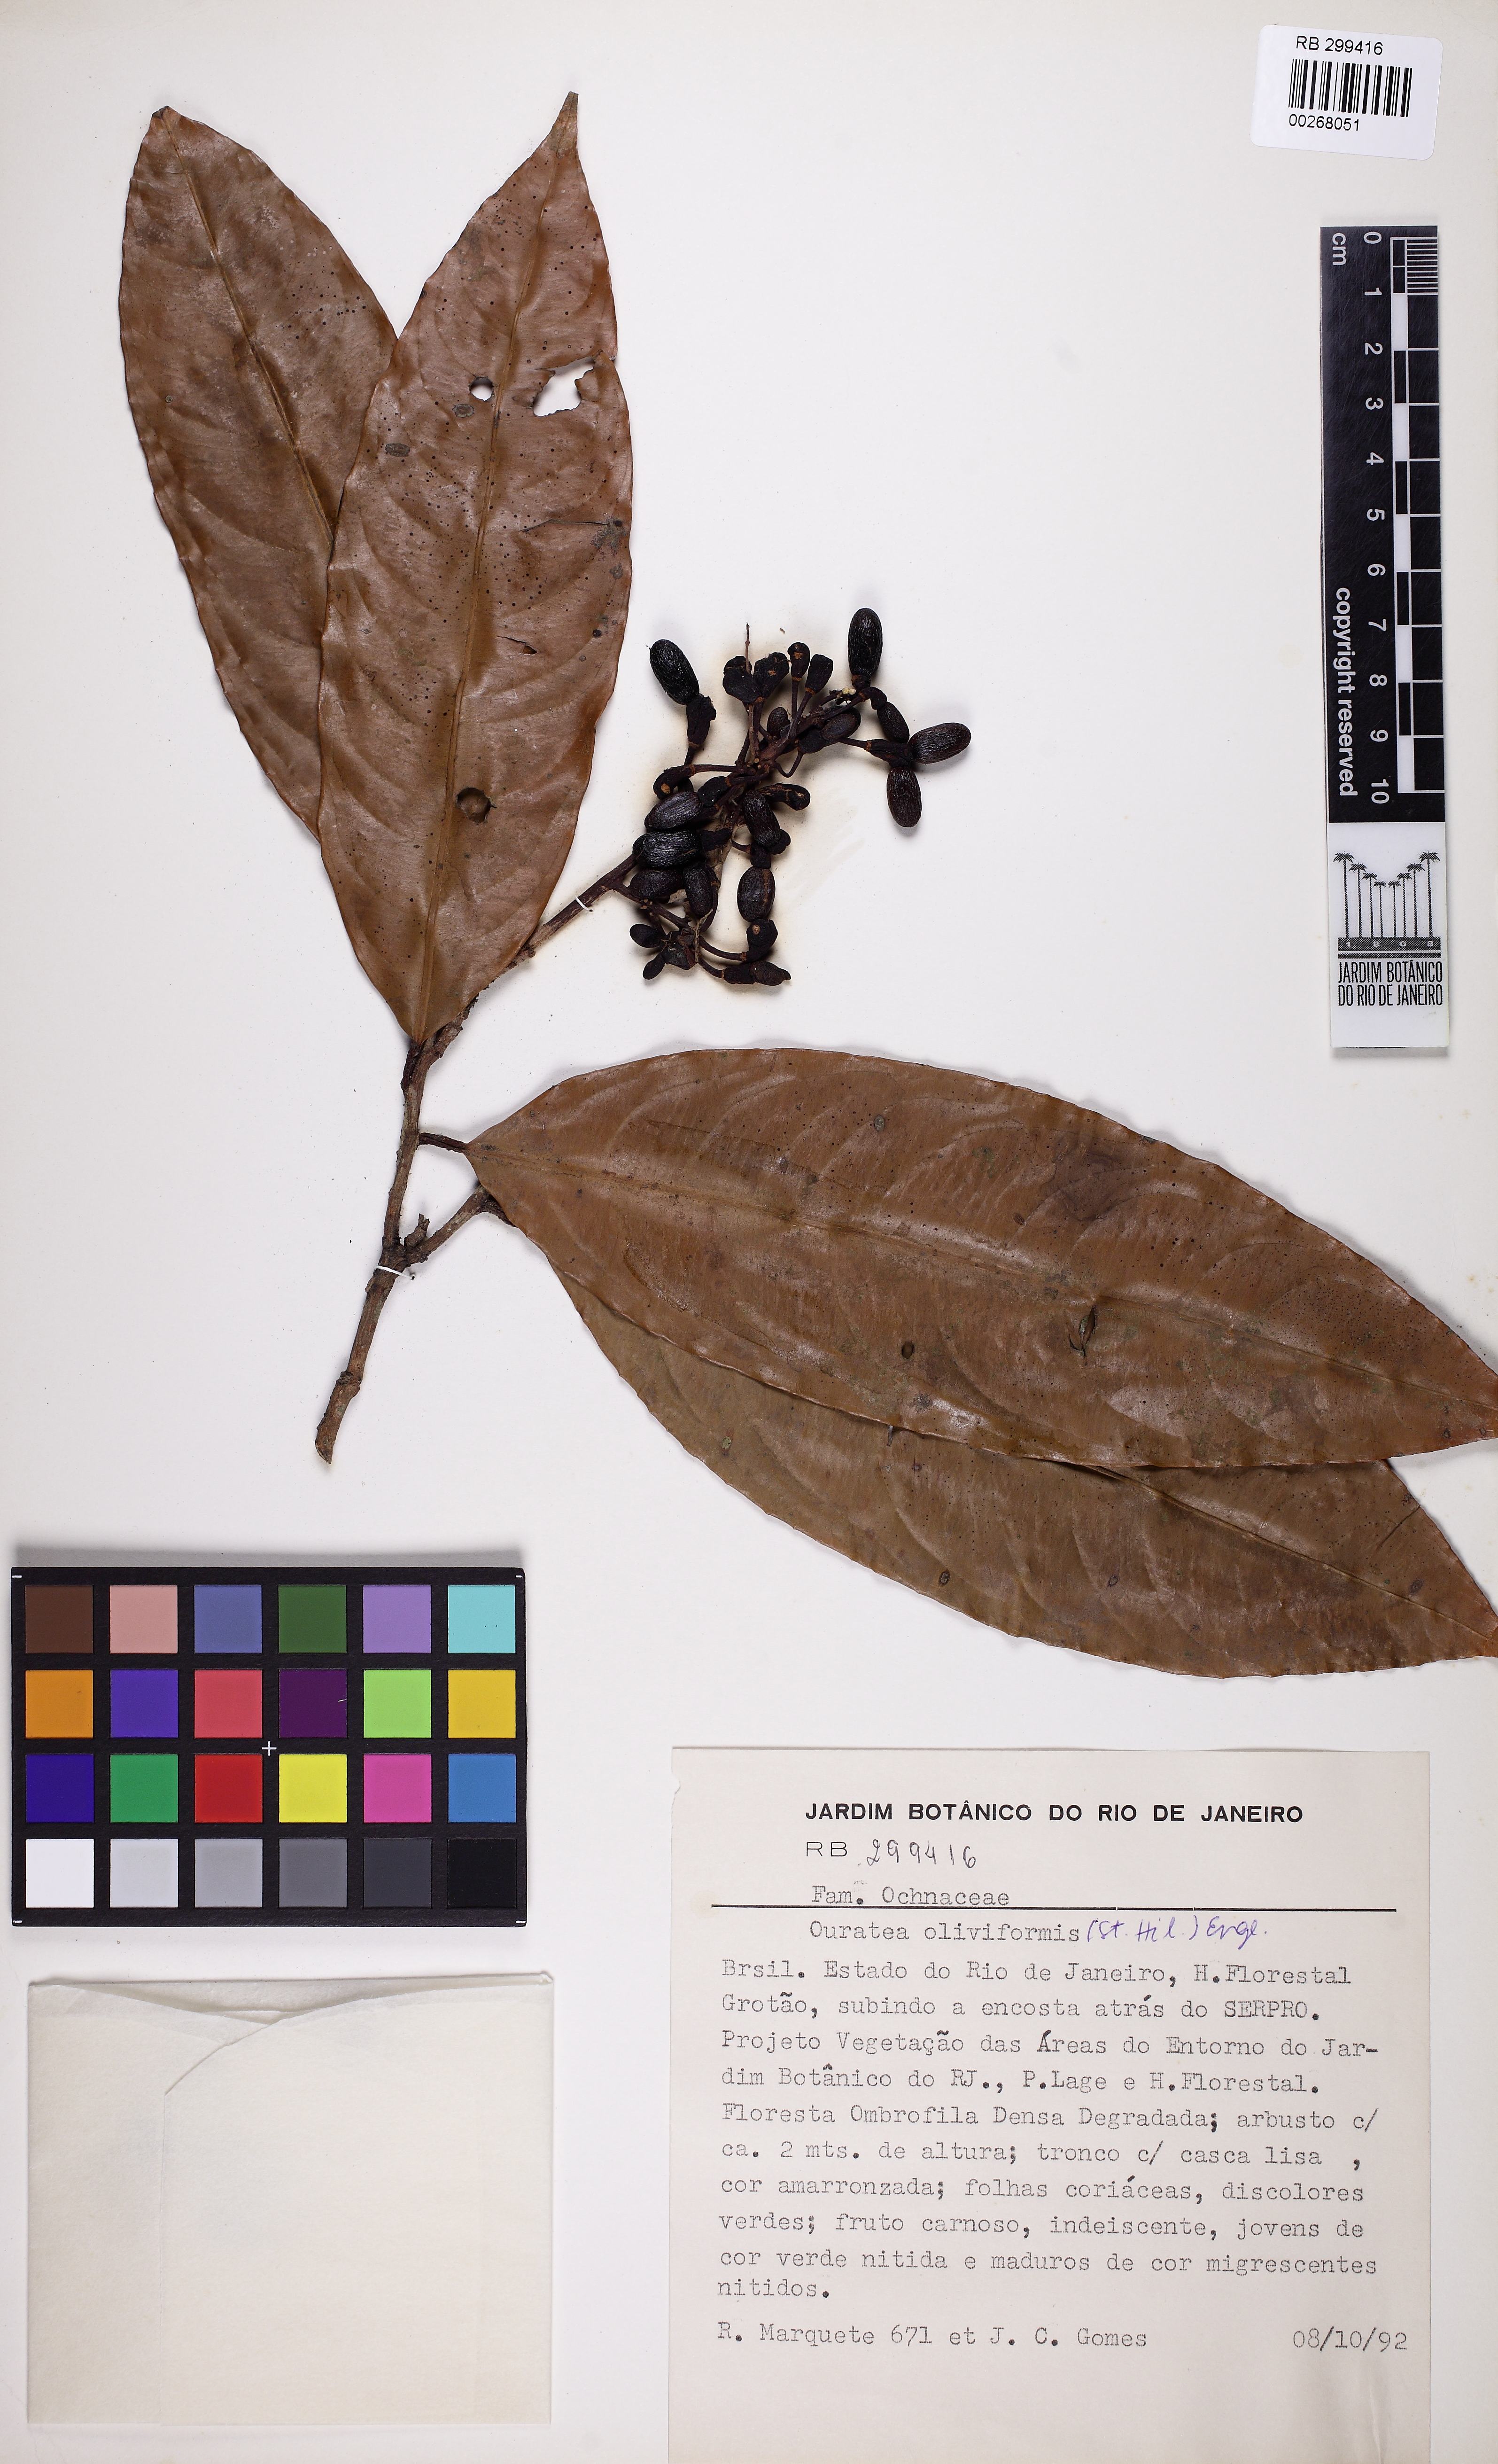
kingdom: Plantae
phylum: Tracheophyta
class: Magnoliopsida
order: Malpighiales
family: Ochnaceae
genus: Ouratea
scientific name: Ouratea oliviformis
